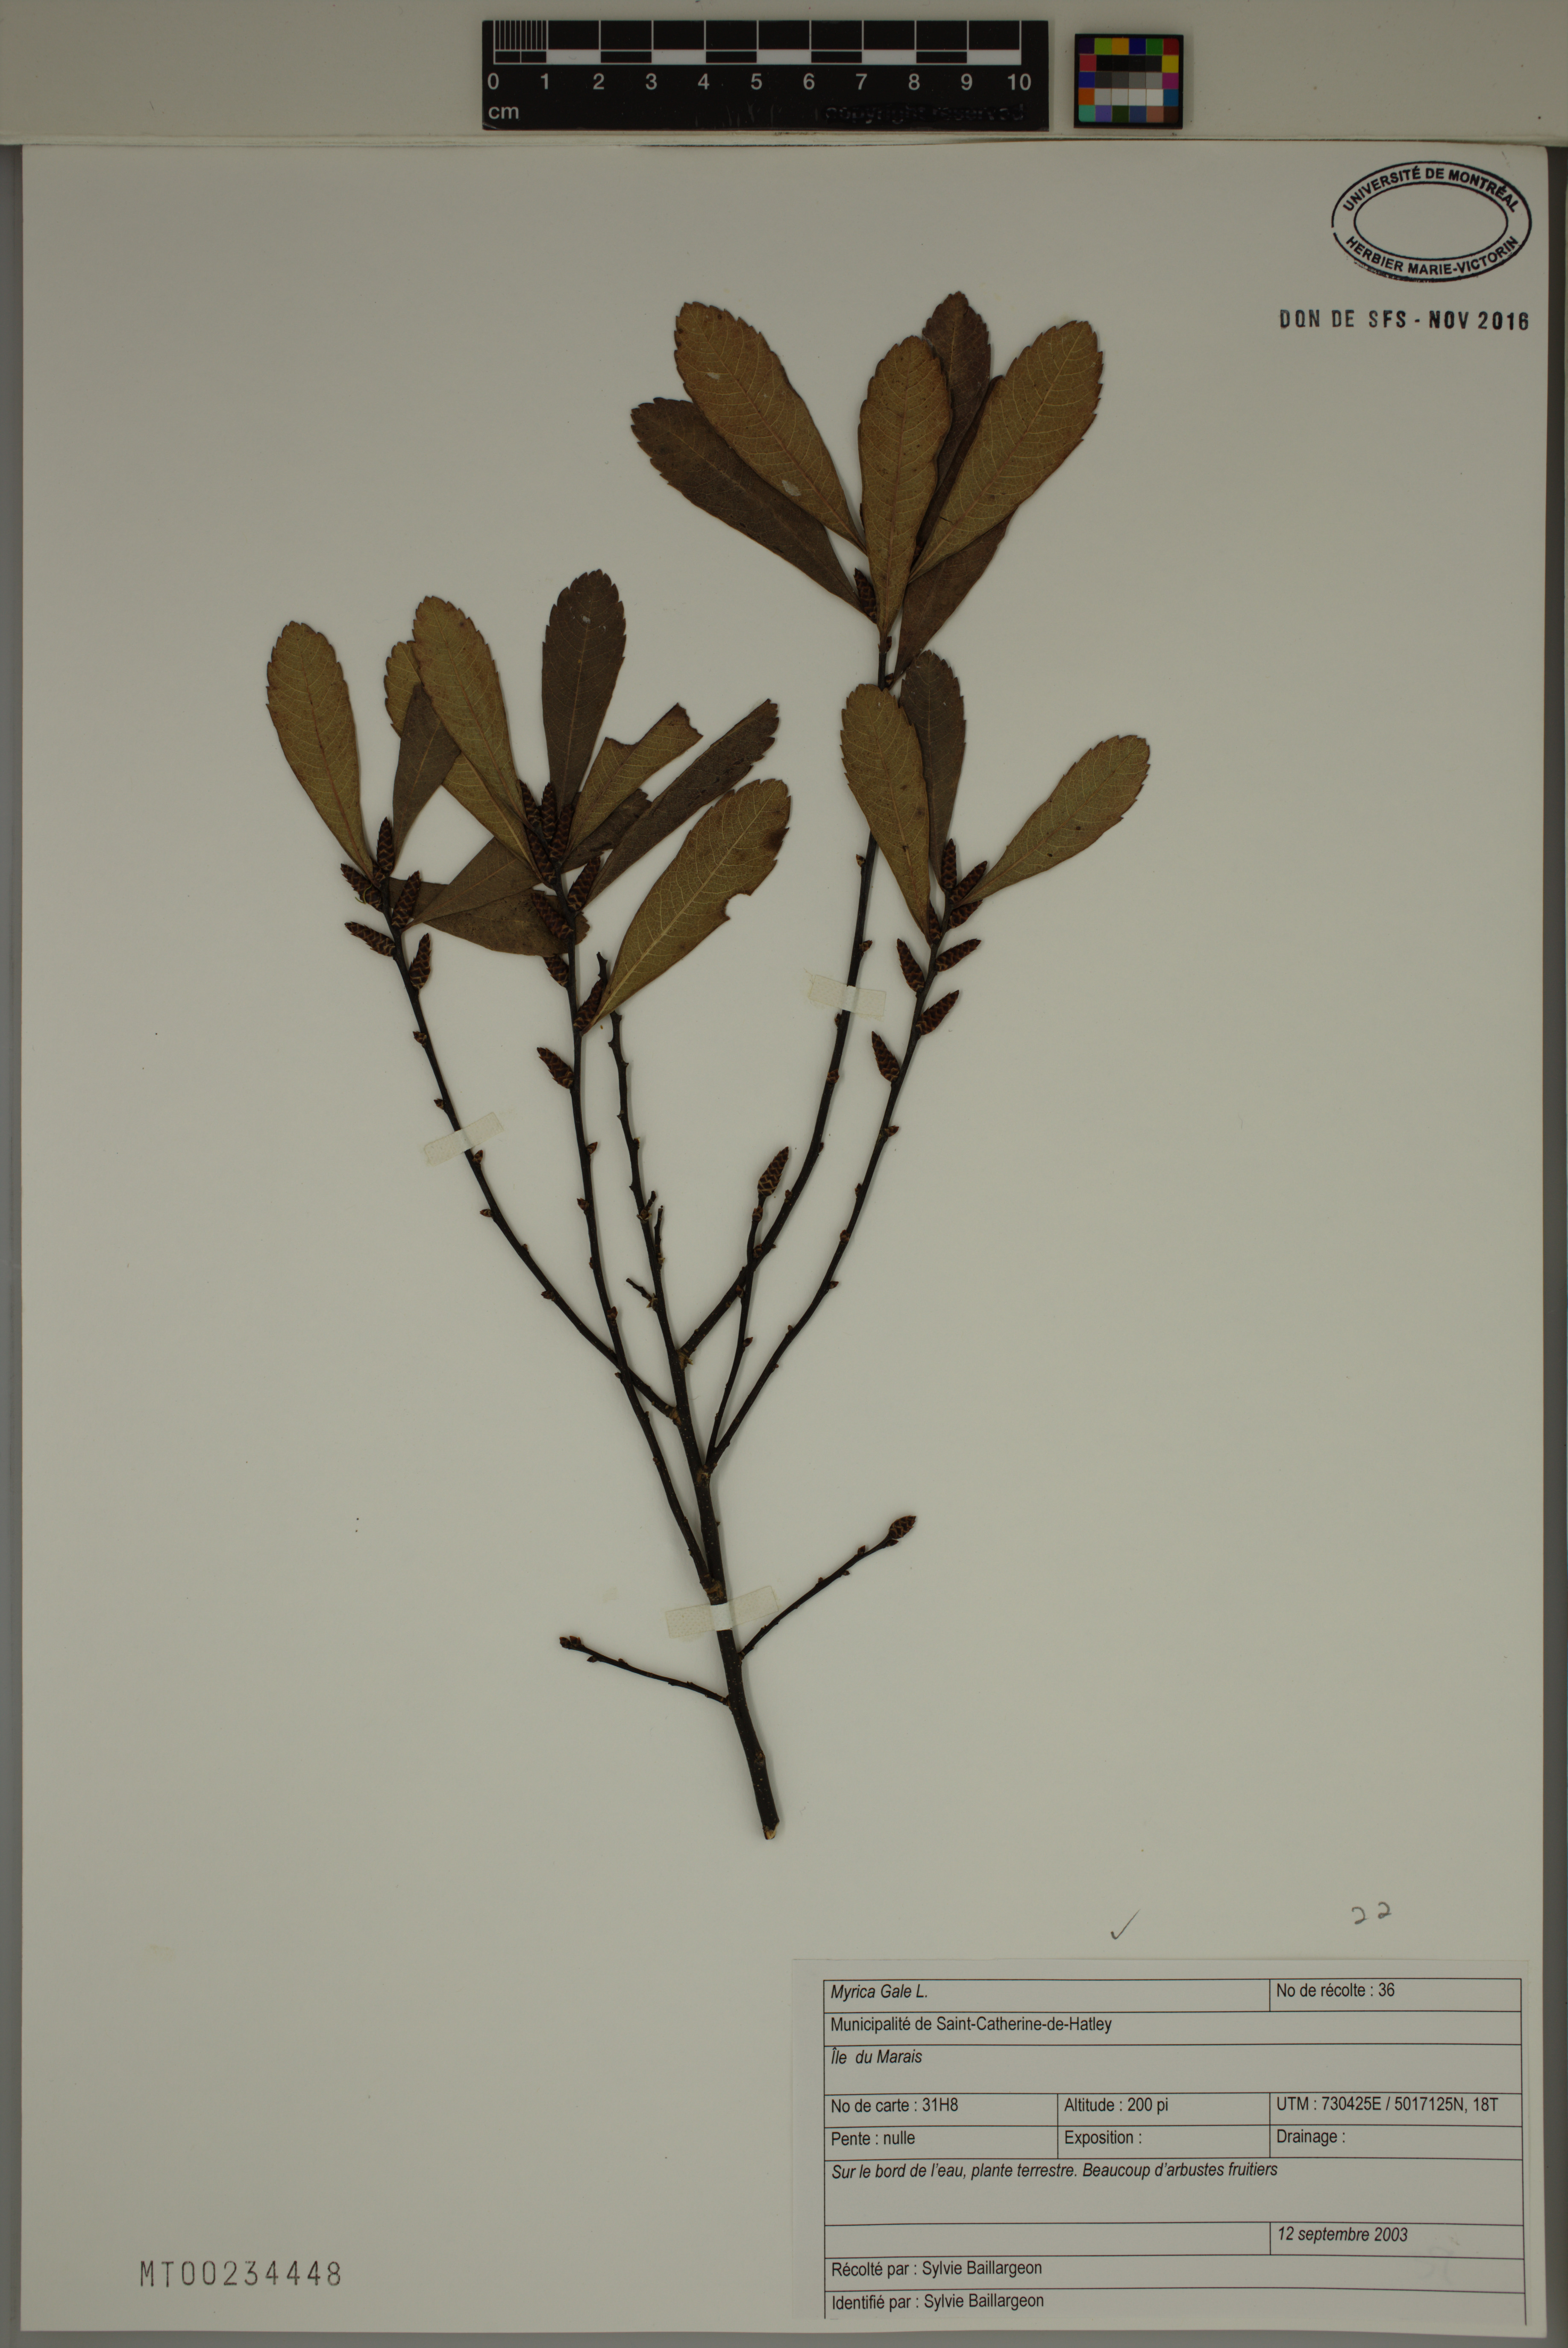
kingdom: Plantae
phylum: Tracheophyta
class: Magnoliopsida
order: Fagales
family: Myricaceae
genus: Myrica
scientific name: Myrica gale
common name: Sweet gale
